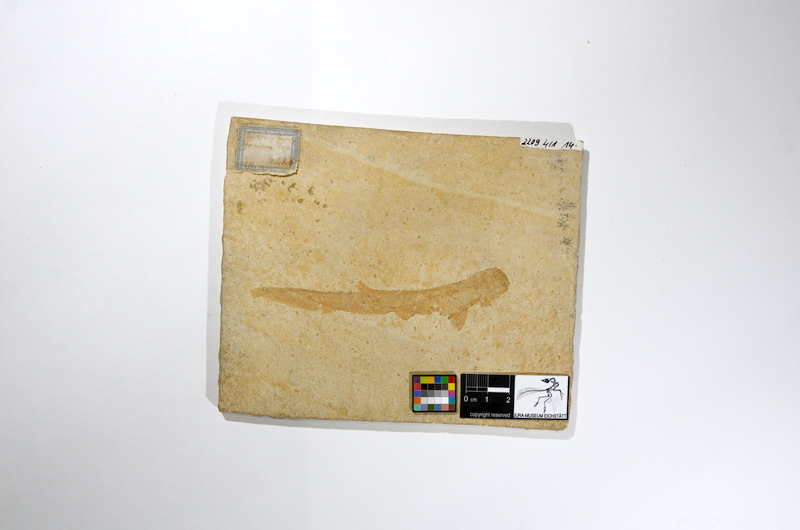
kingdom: Animalia
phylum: Chordata
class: Elasmobranchii
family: Paraorthacodontidae
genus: Macrourogaleus
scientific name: Macrourogaleus hassei
